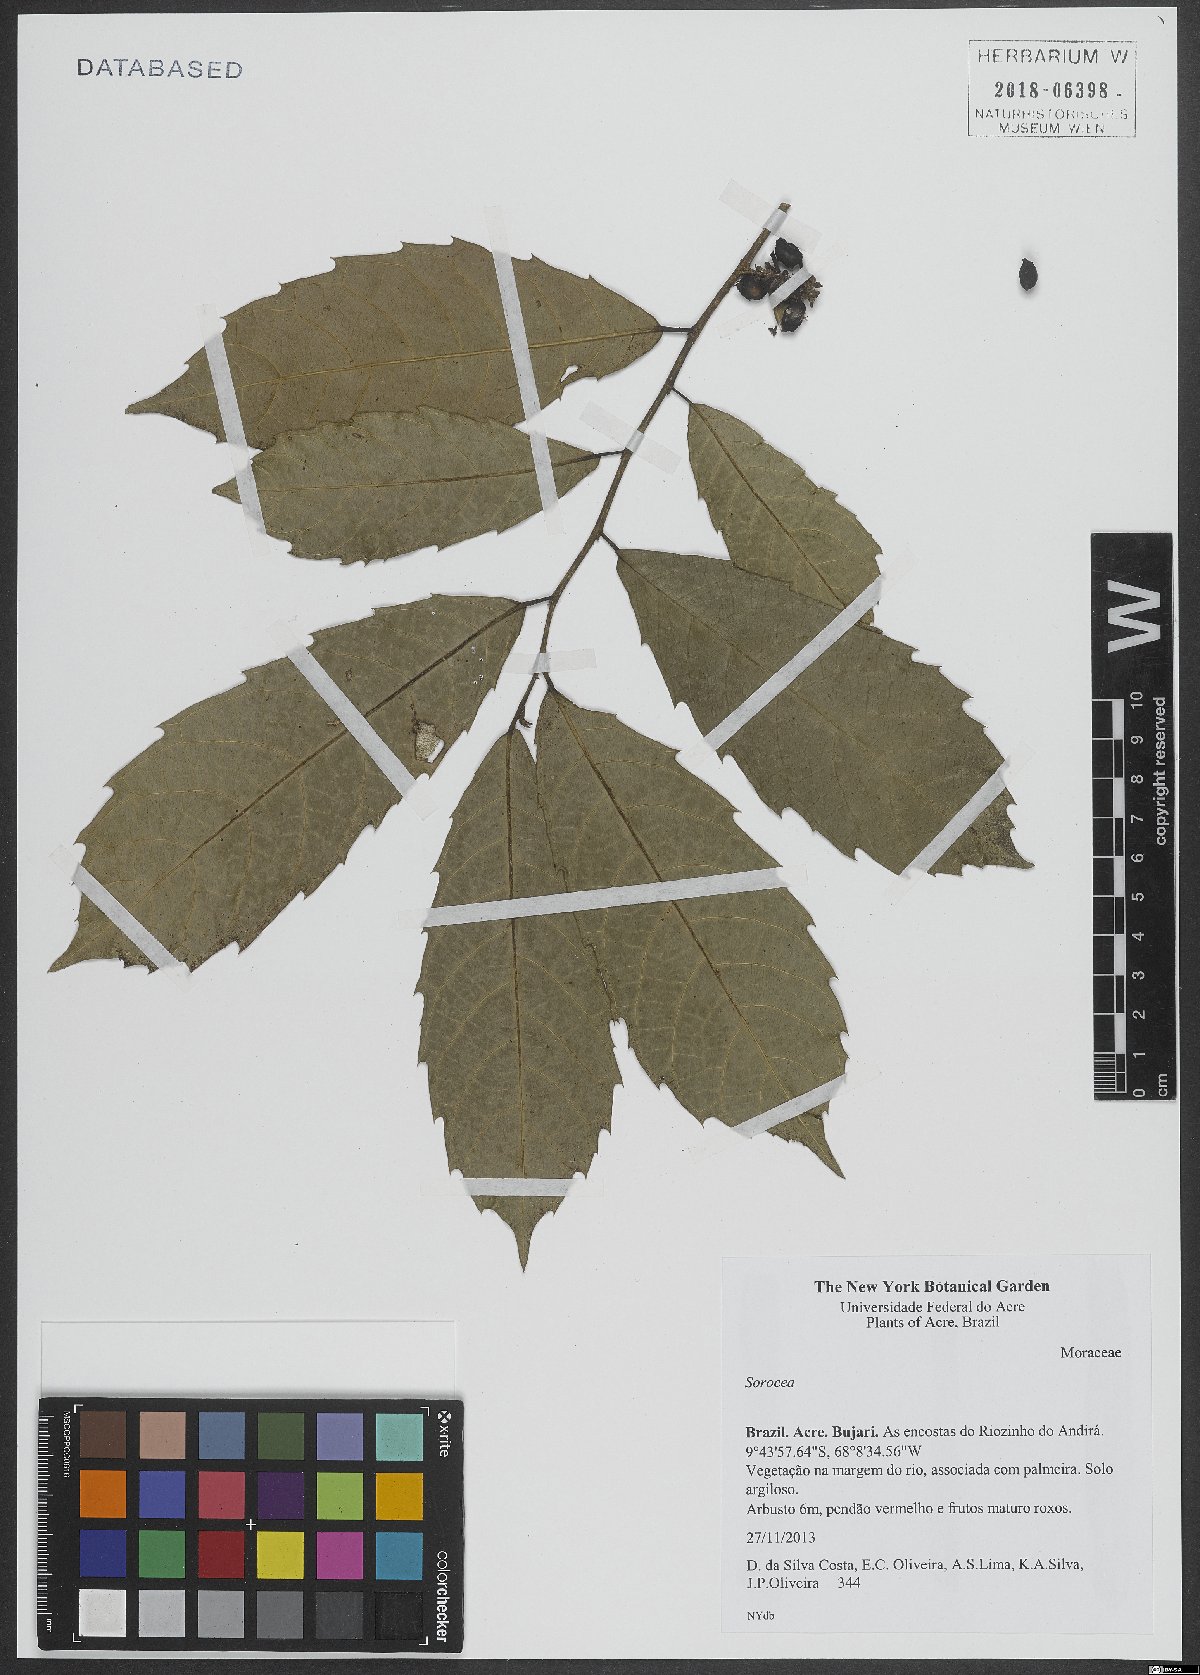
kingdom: Plantae
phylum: Tracheophyta
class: Magnoliopsida
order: Rosales
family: Moraceae
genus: Sorocea
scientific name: Sorocea
